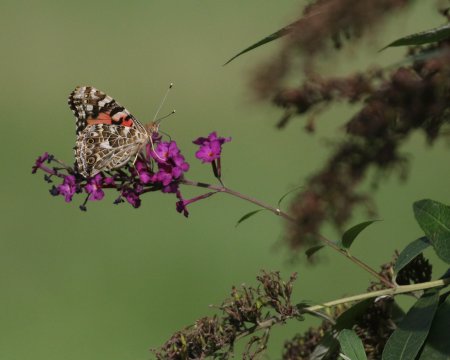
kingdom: Animalia
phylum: Arthropoda
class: Insecta
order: Lepidoptera
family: Nymphalidae
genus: Vanessa
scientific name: Vanessa cardui
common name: Painted Lady
